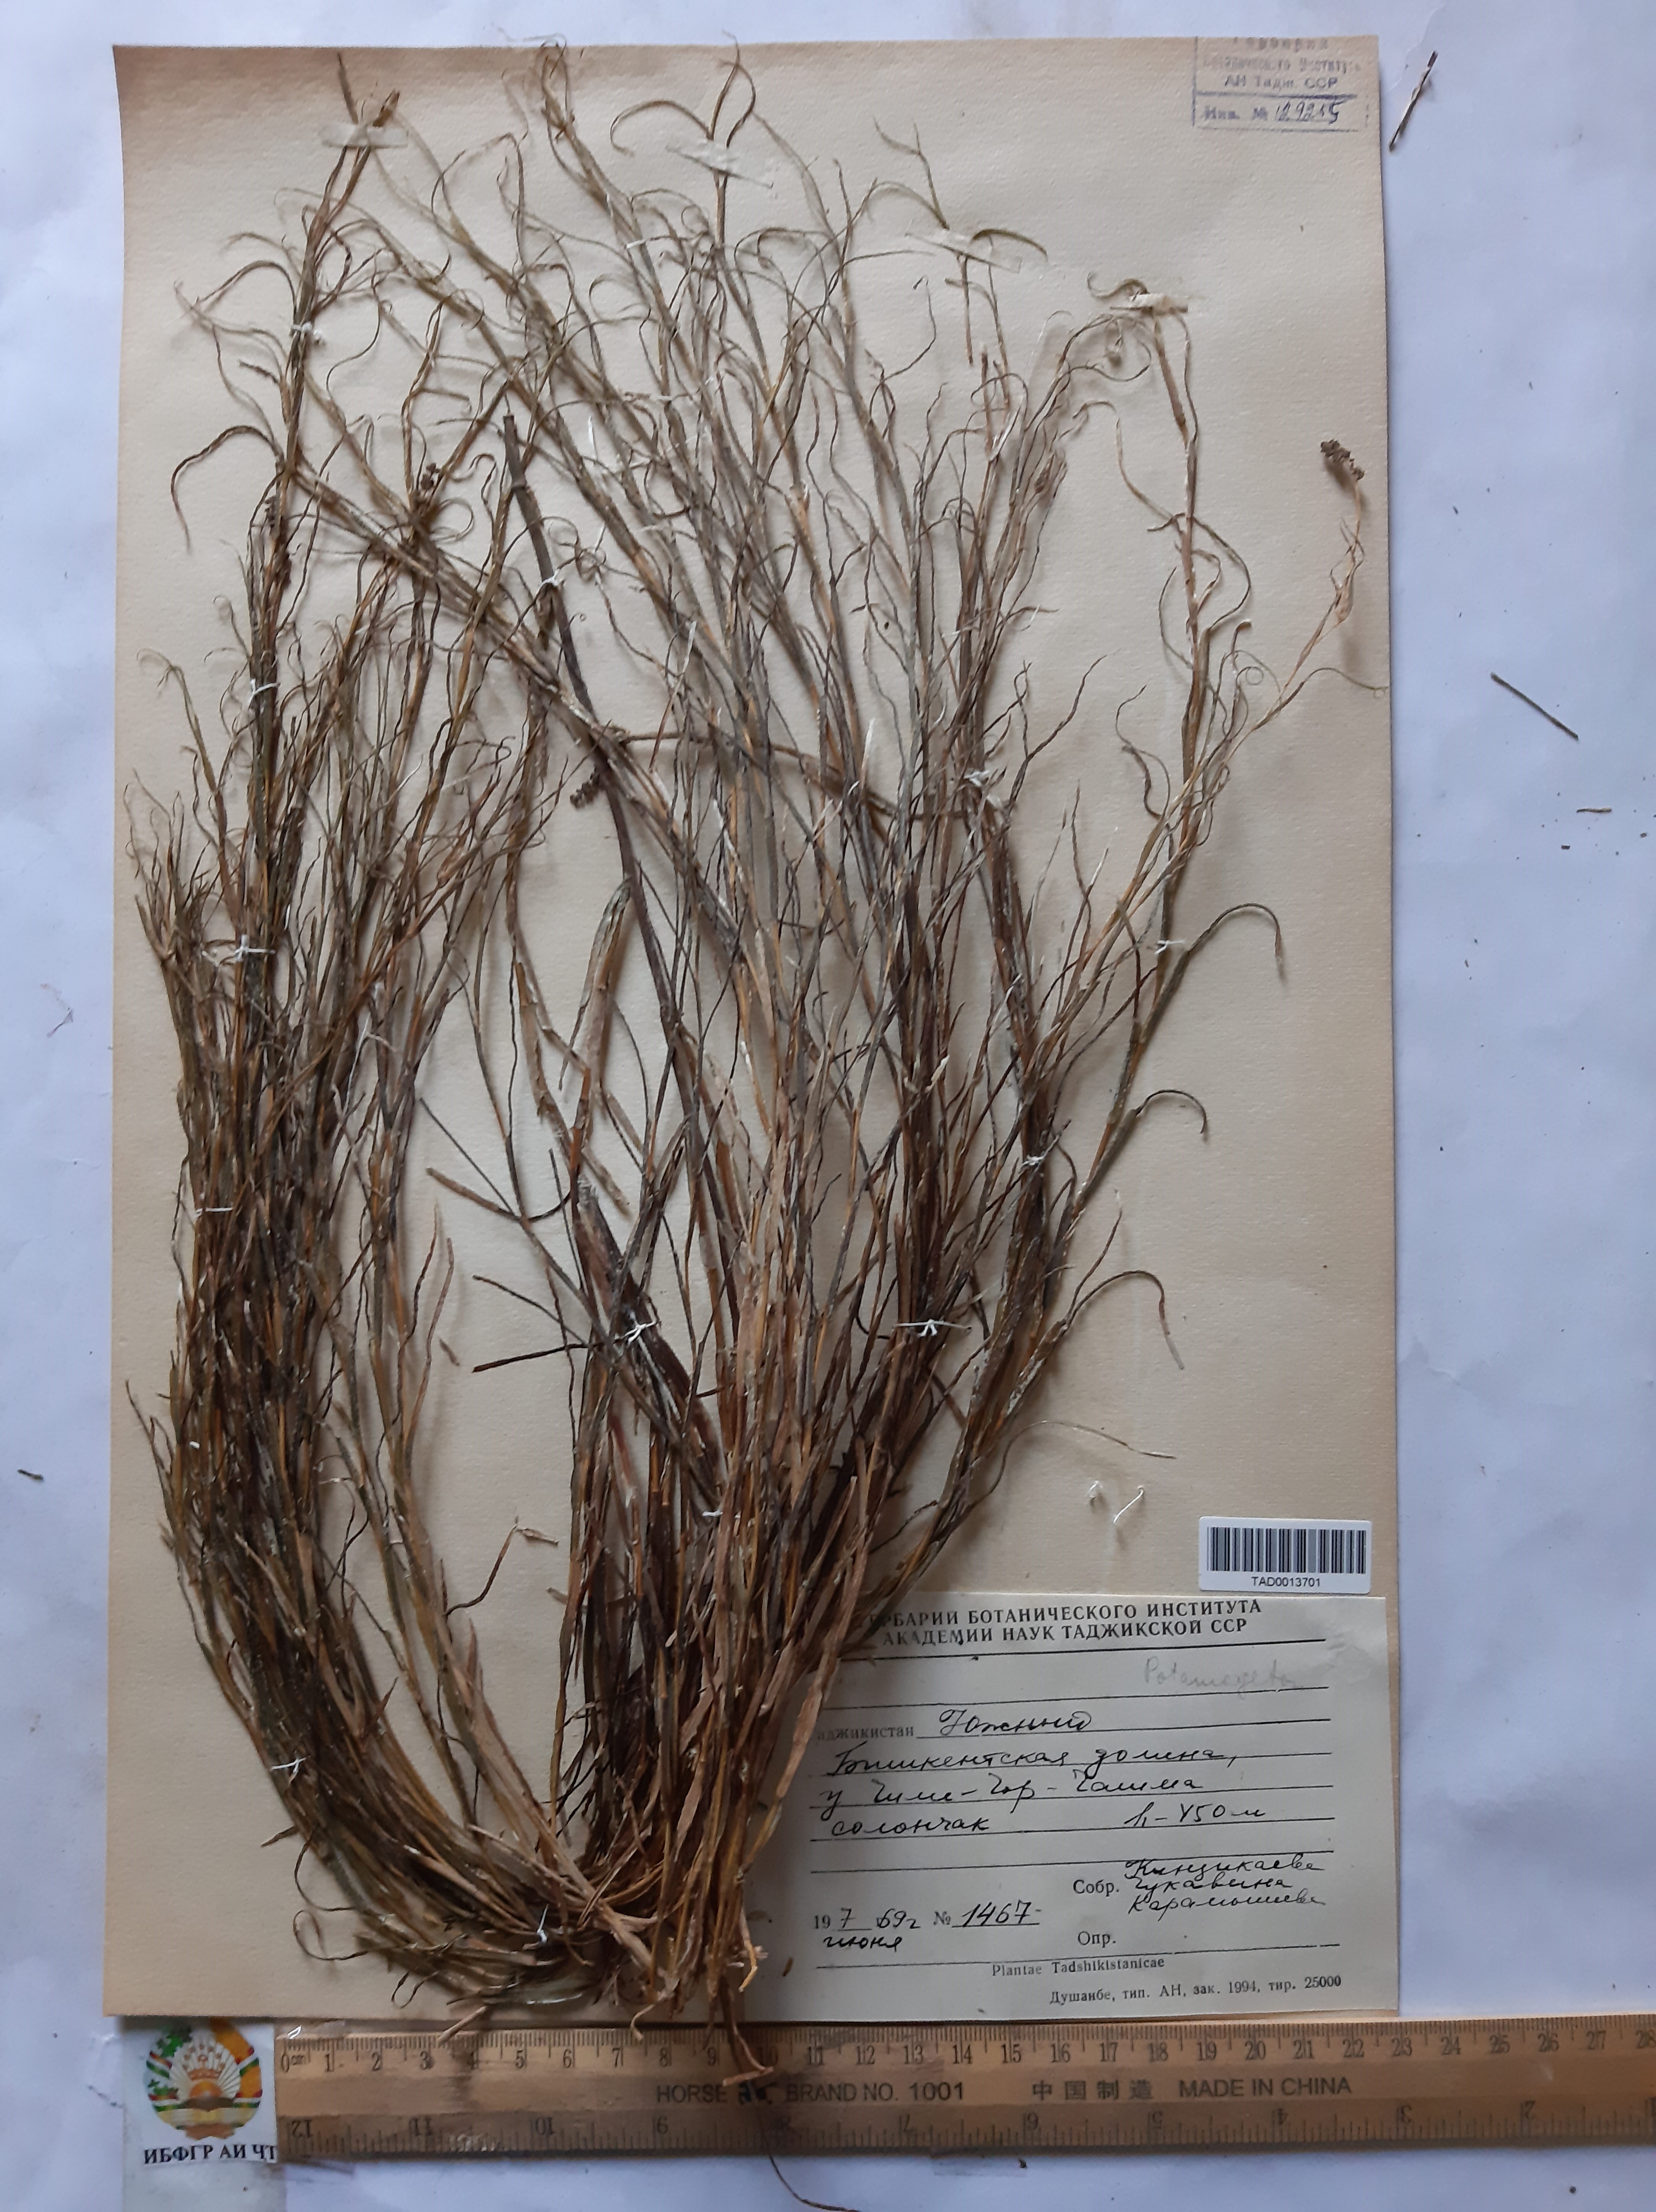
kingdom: Plantae
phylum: Tracheophyta
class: Liliopsida
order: Alismatales
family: Potamogetonaceae
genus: Potamogeton
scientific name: Potamogeton crispus
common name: Curled pondweed
